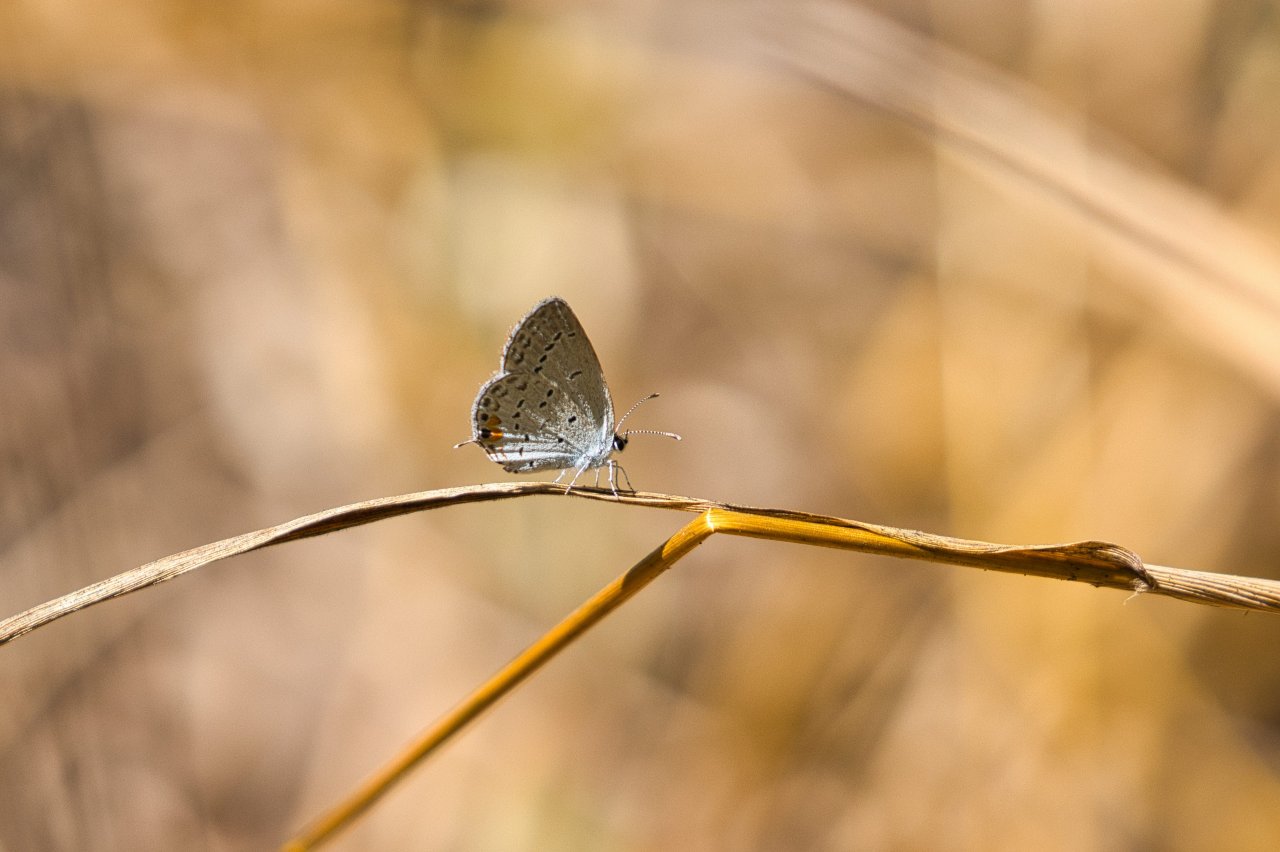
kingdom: Animalia
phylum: Arthropoda
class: Insecta
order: Lepidoptera
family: Lycaenidae
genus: Elkalyce
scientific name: Elkalyce comyntas
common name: Eastern Tailed-Blue
